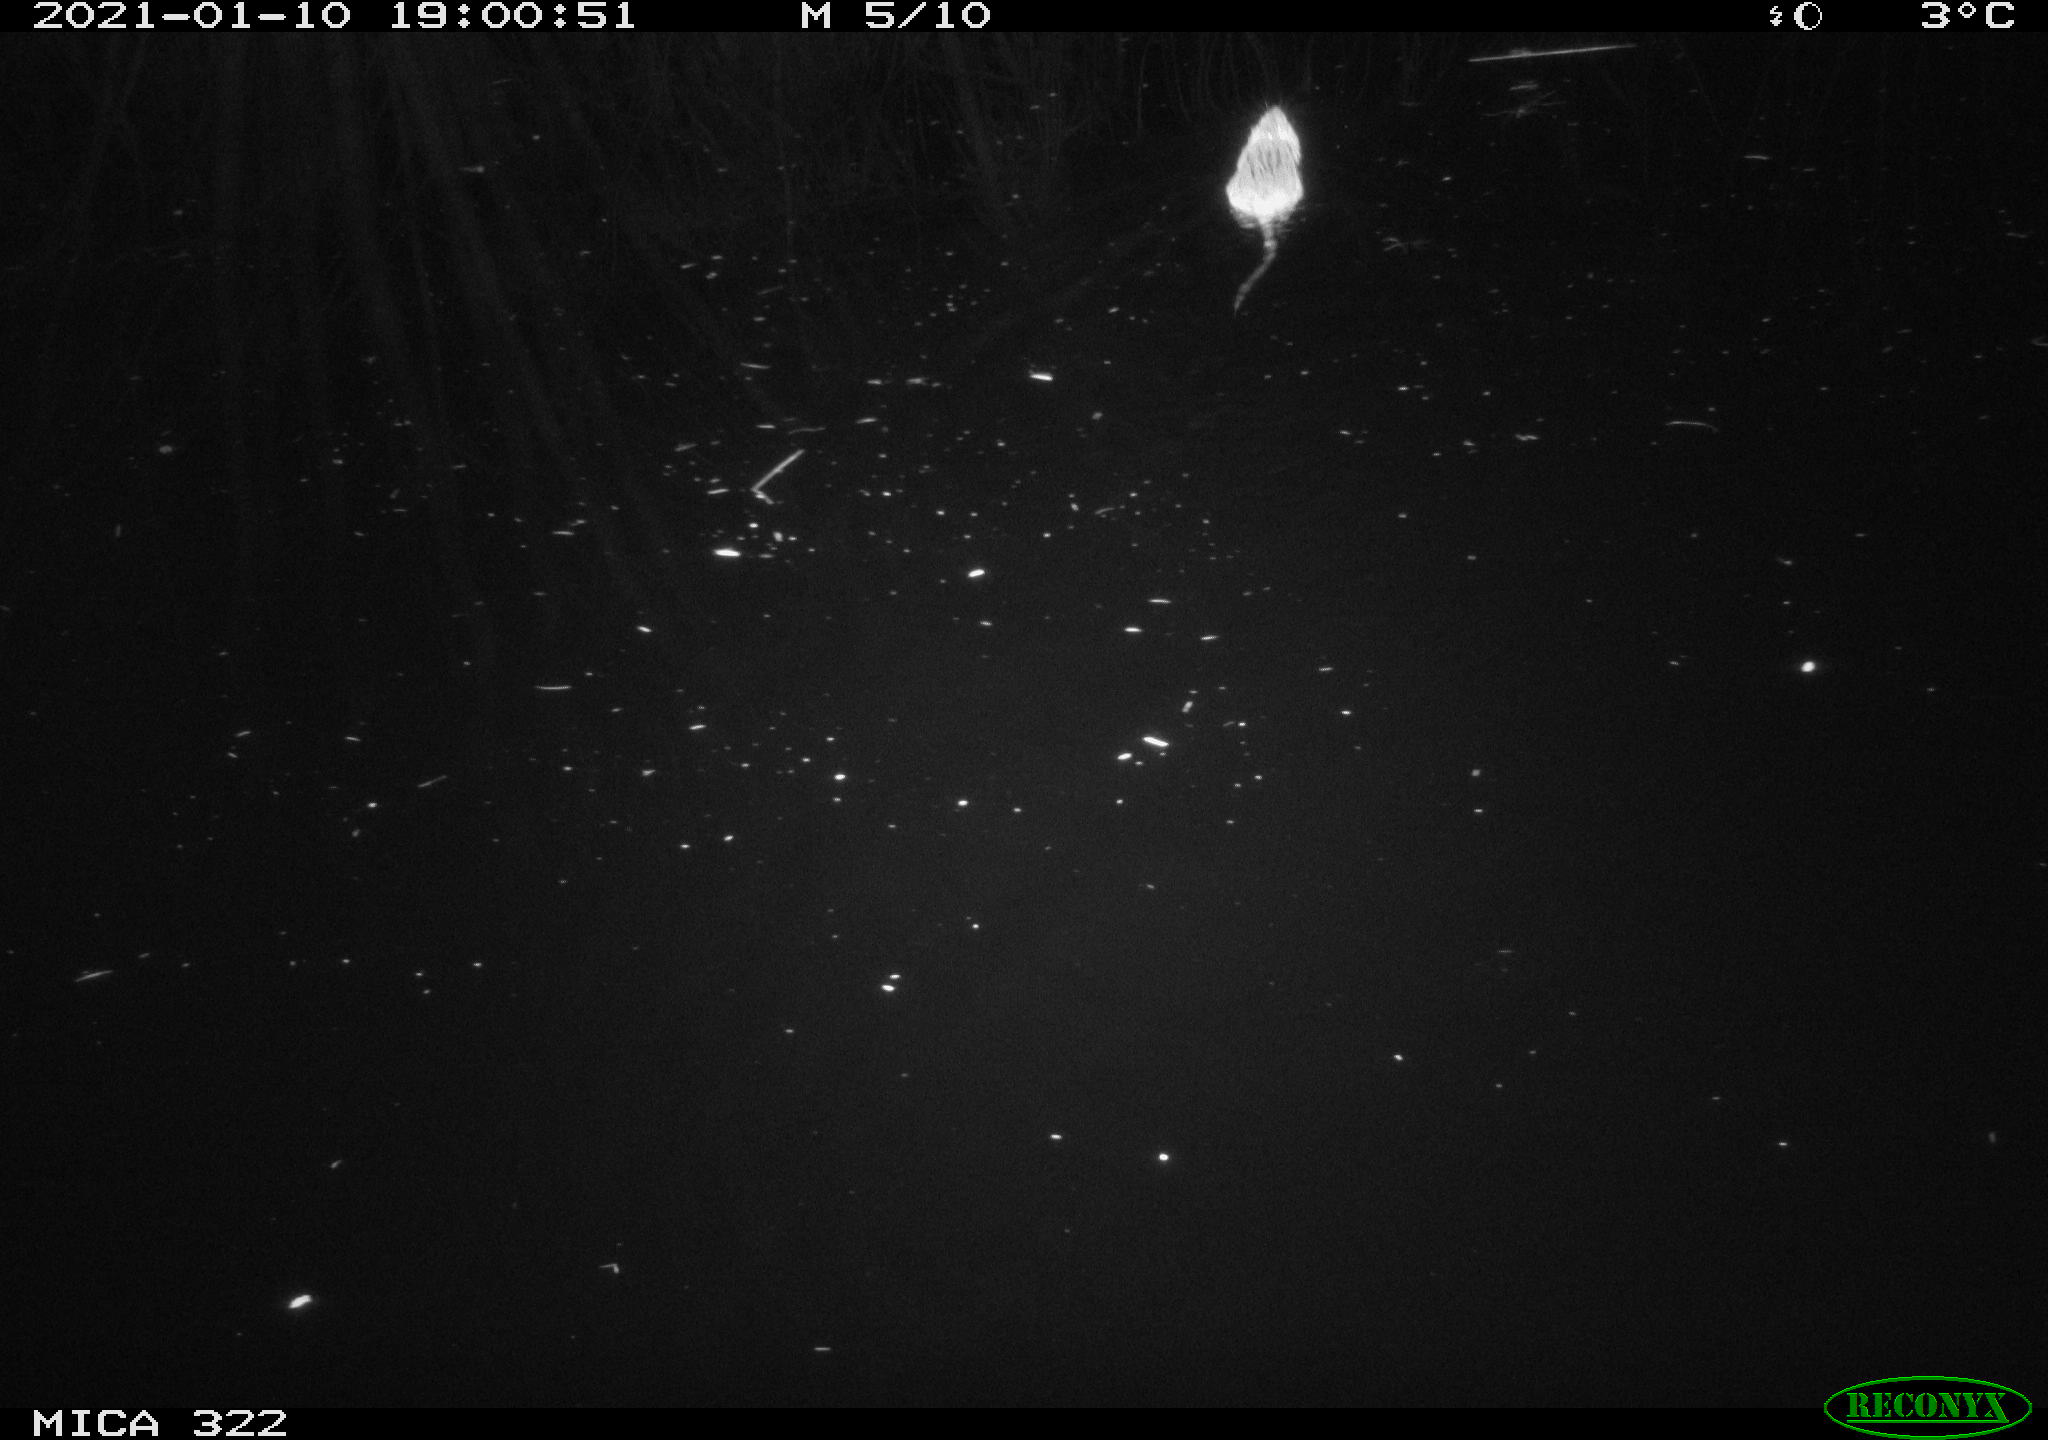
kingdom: Animalia
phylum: Chordata
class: Mammalia
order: Rodentia
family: Muridae
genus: Rattus
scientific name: Rattus norvegicus
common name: Brown rat
